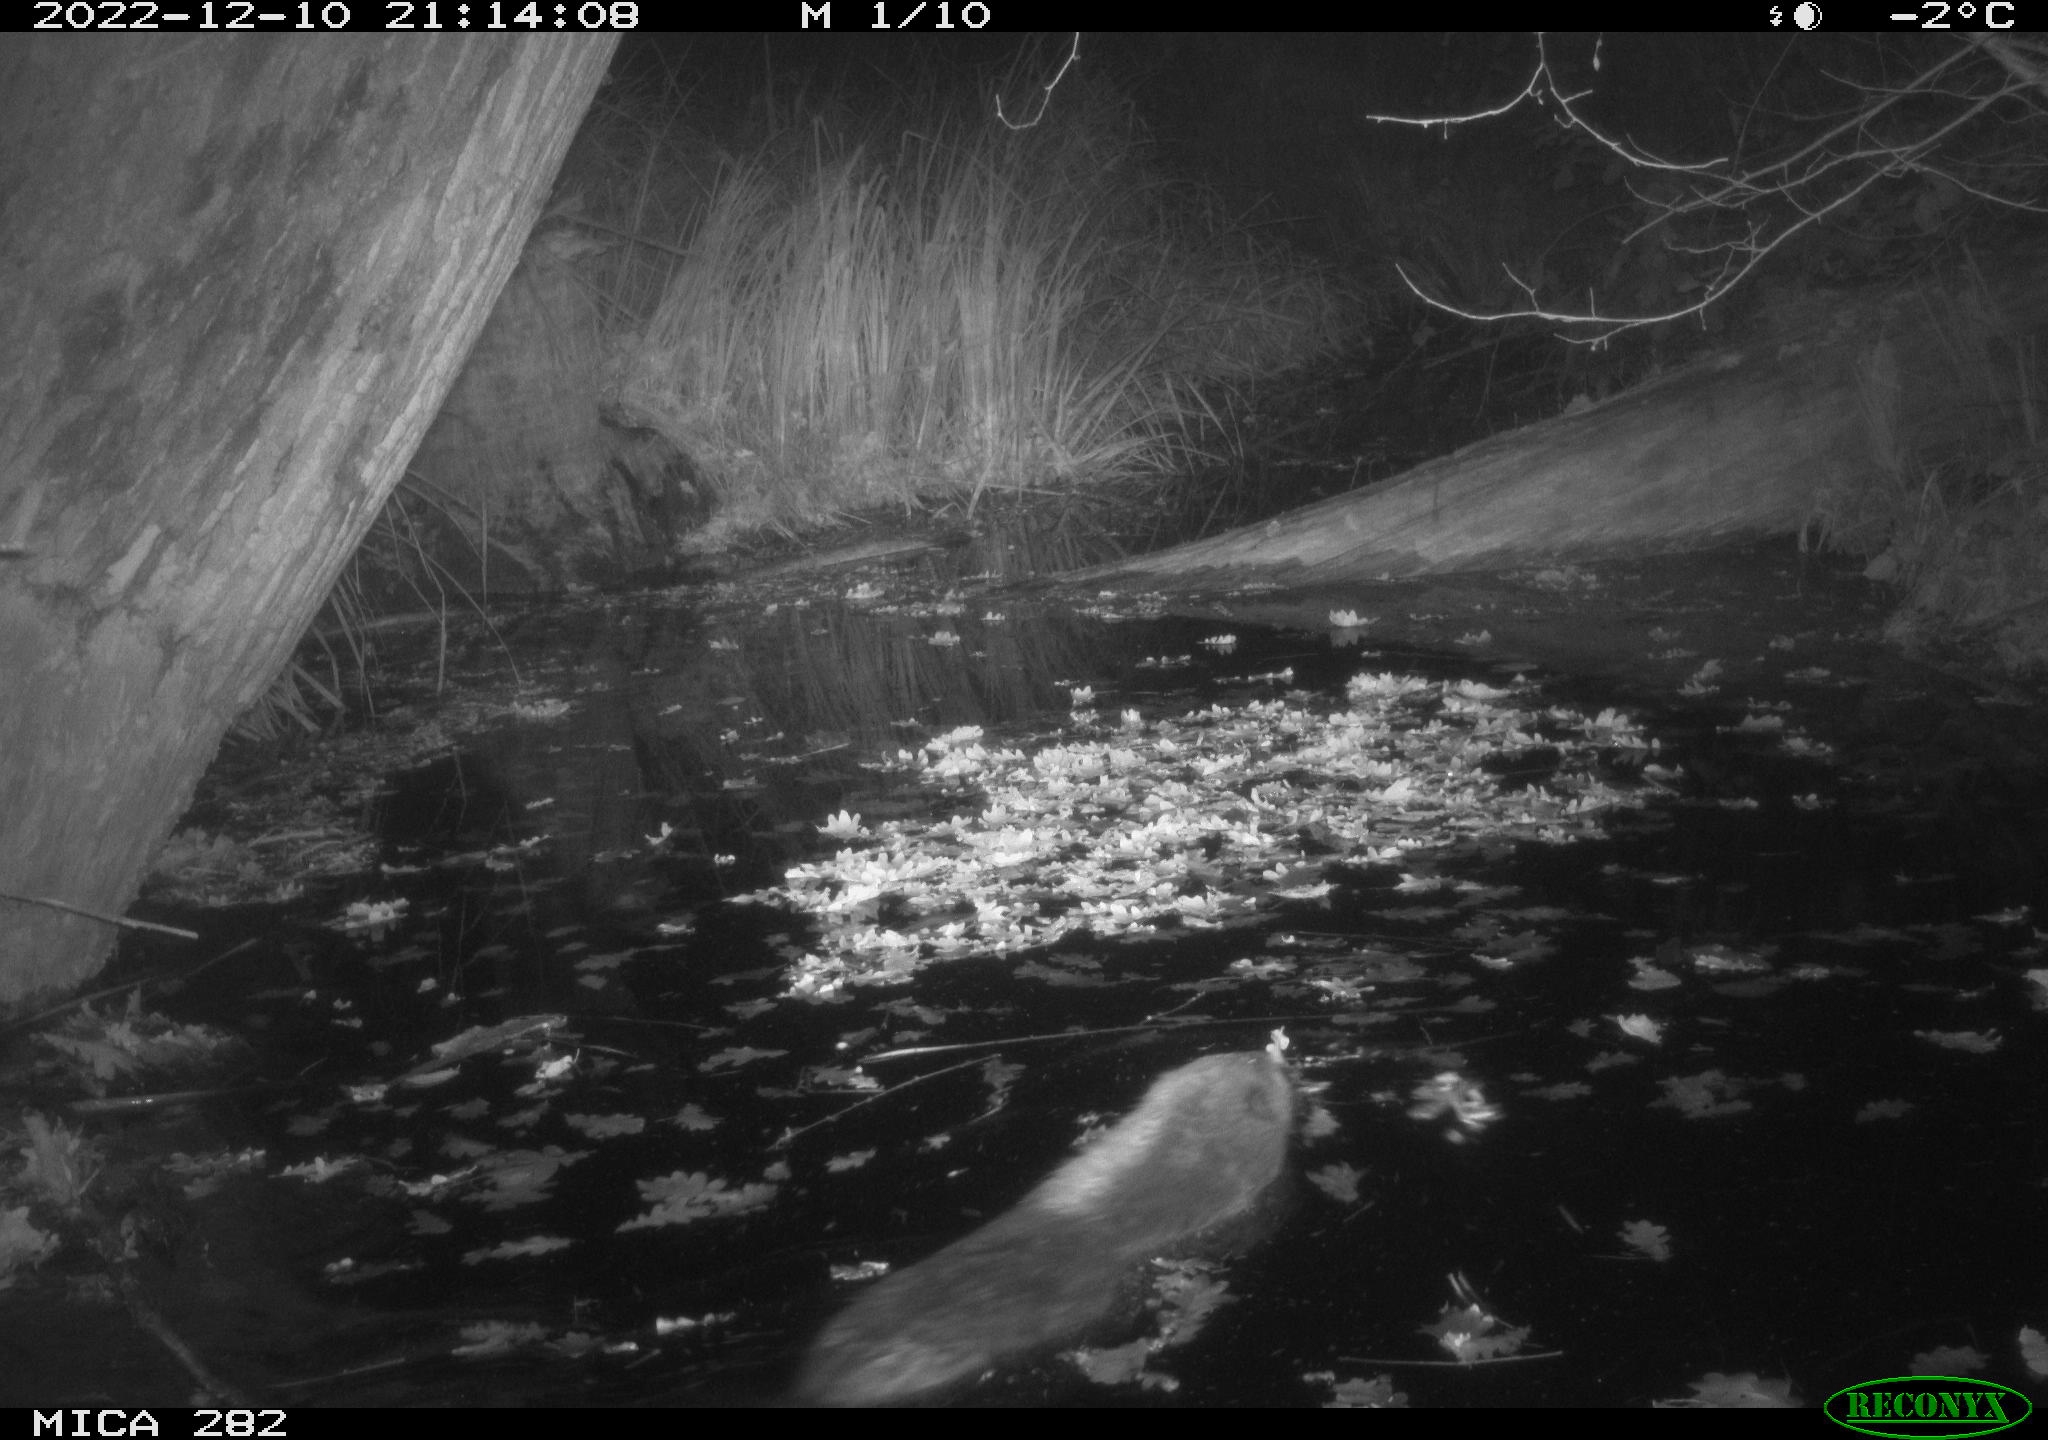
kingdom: Animalia
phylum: Chordata
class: Mammalia
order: Rodentia
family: Castoridae
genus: Castor
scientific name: Castor fiber
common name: Eurasian beaver
